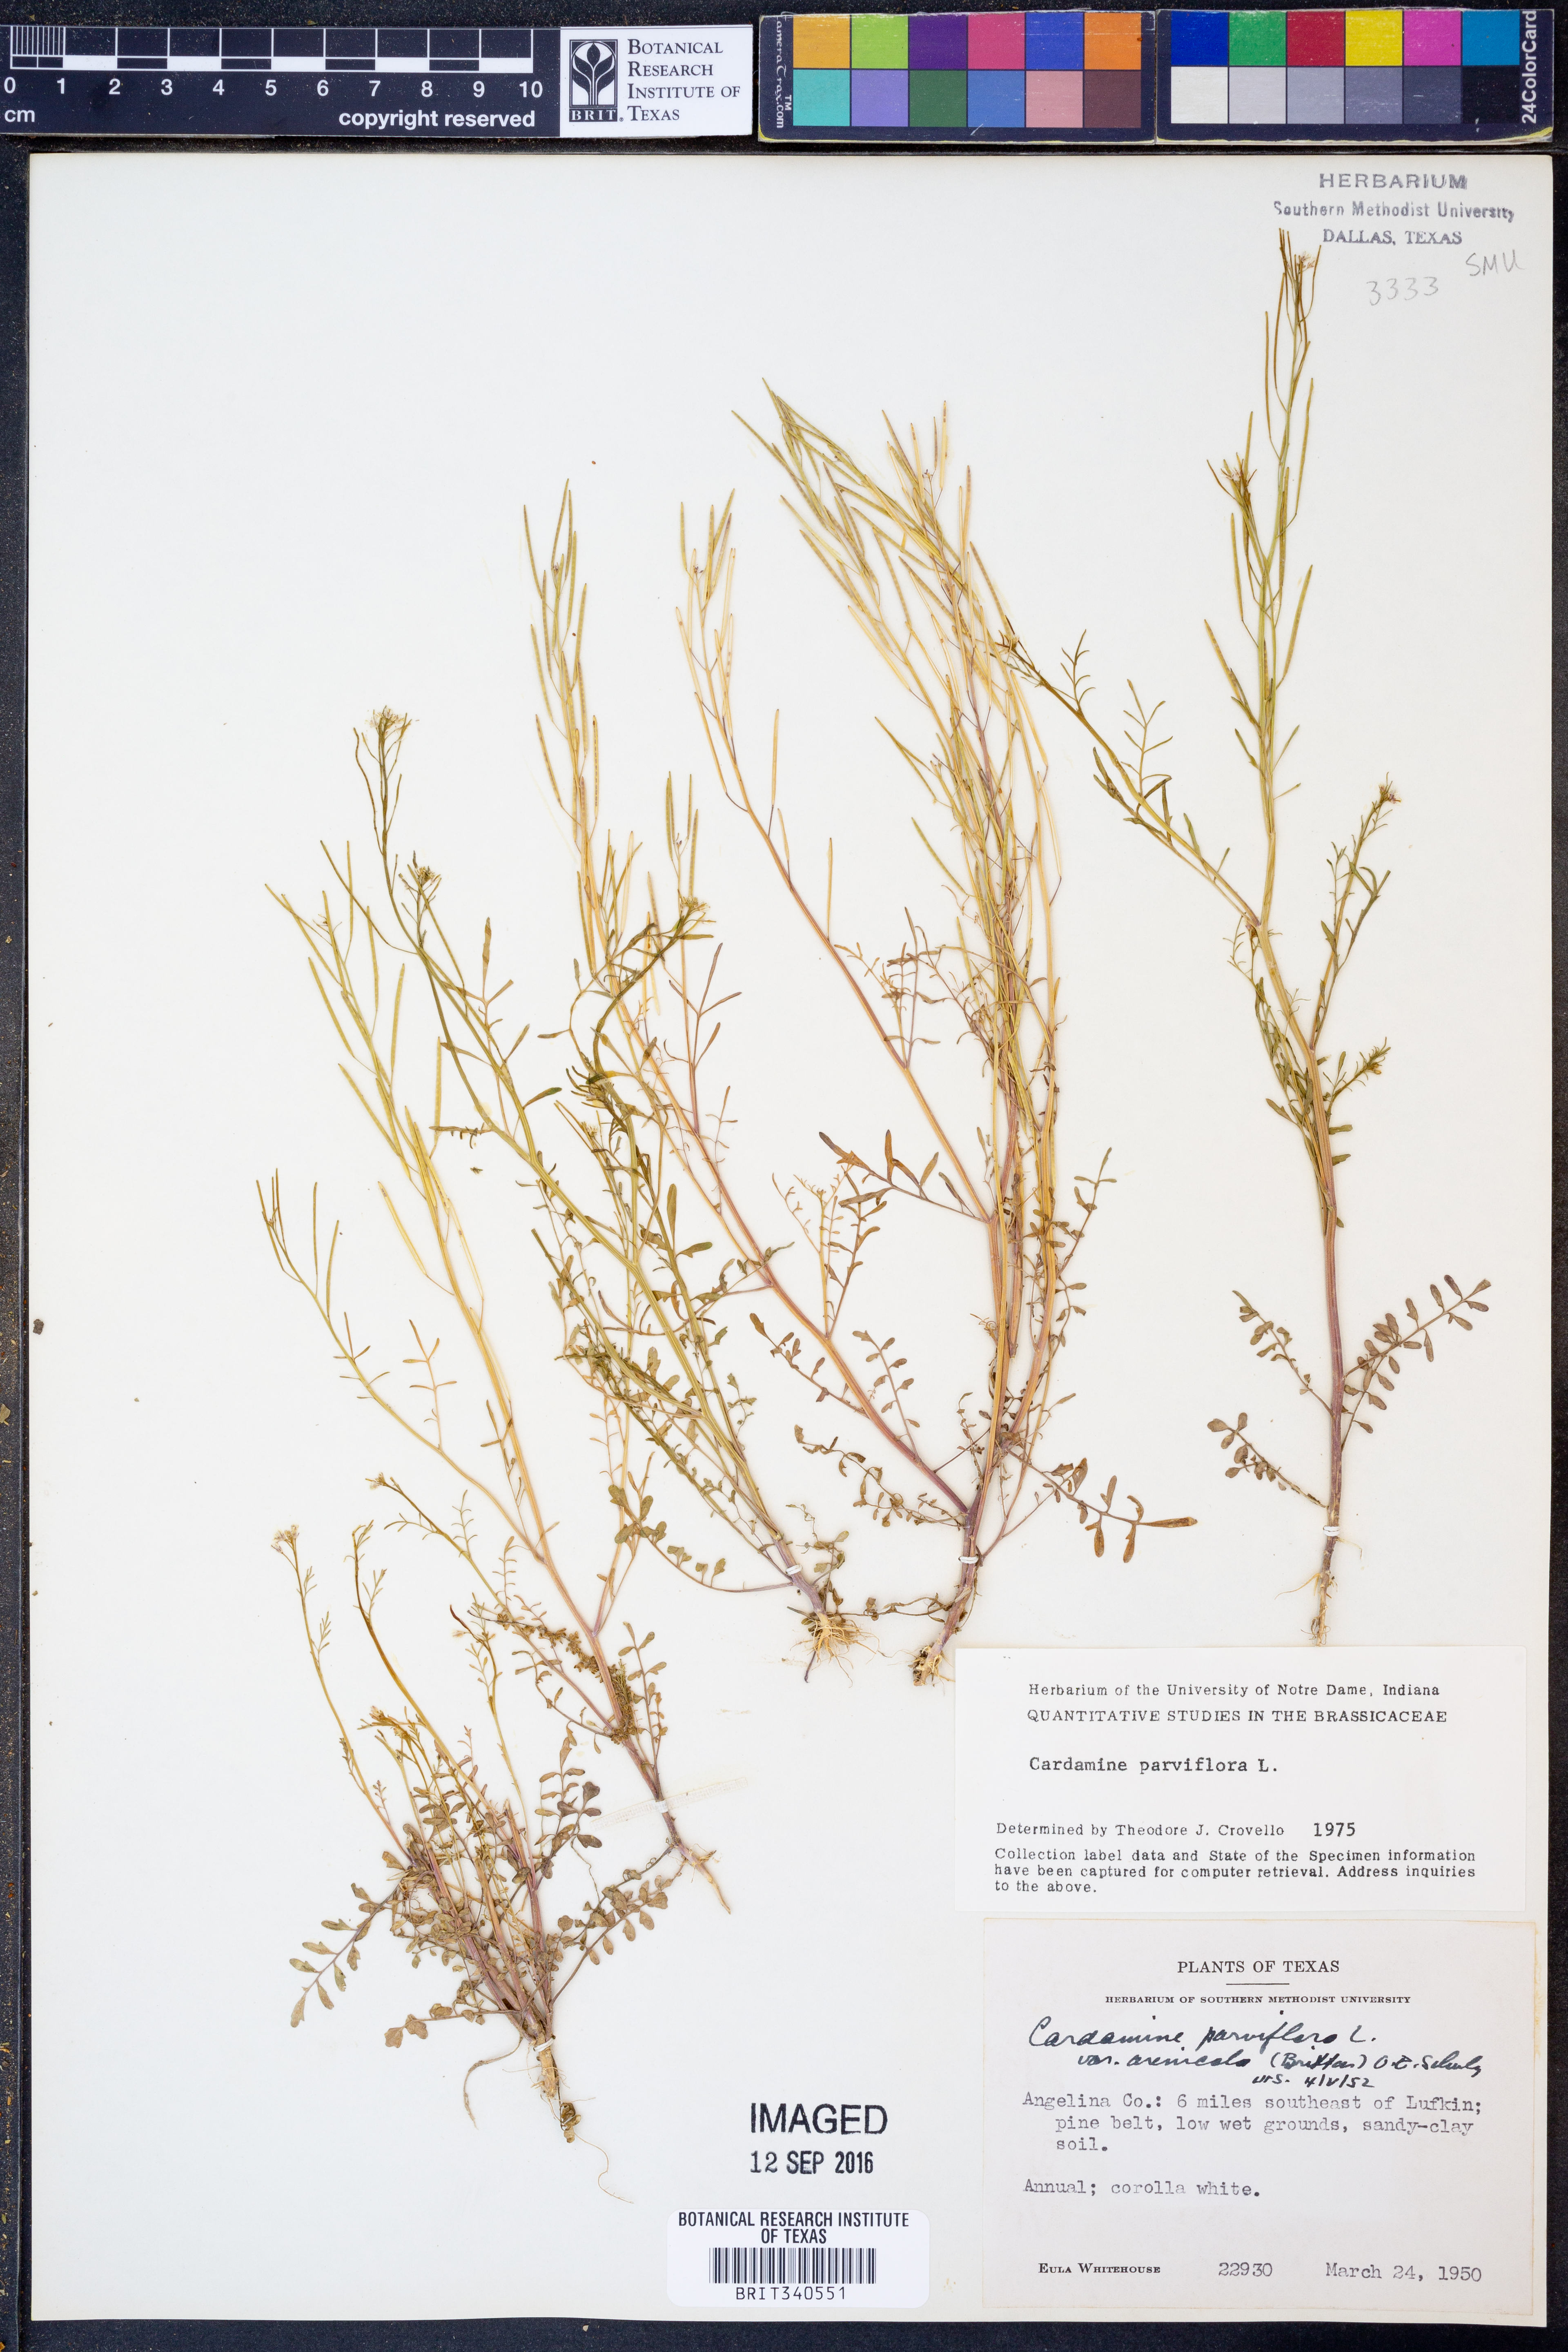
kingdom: Plantae
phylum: Tracheophyta
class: Magnoliopsida
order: Brassicales
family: Brassicaceae
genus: Cardamine
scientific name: Cardamine parviflora
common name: Sand bittercress
